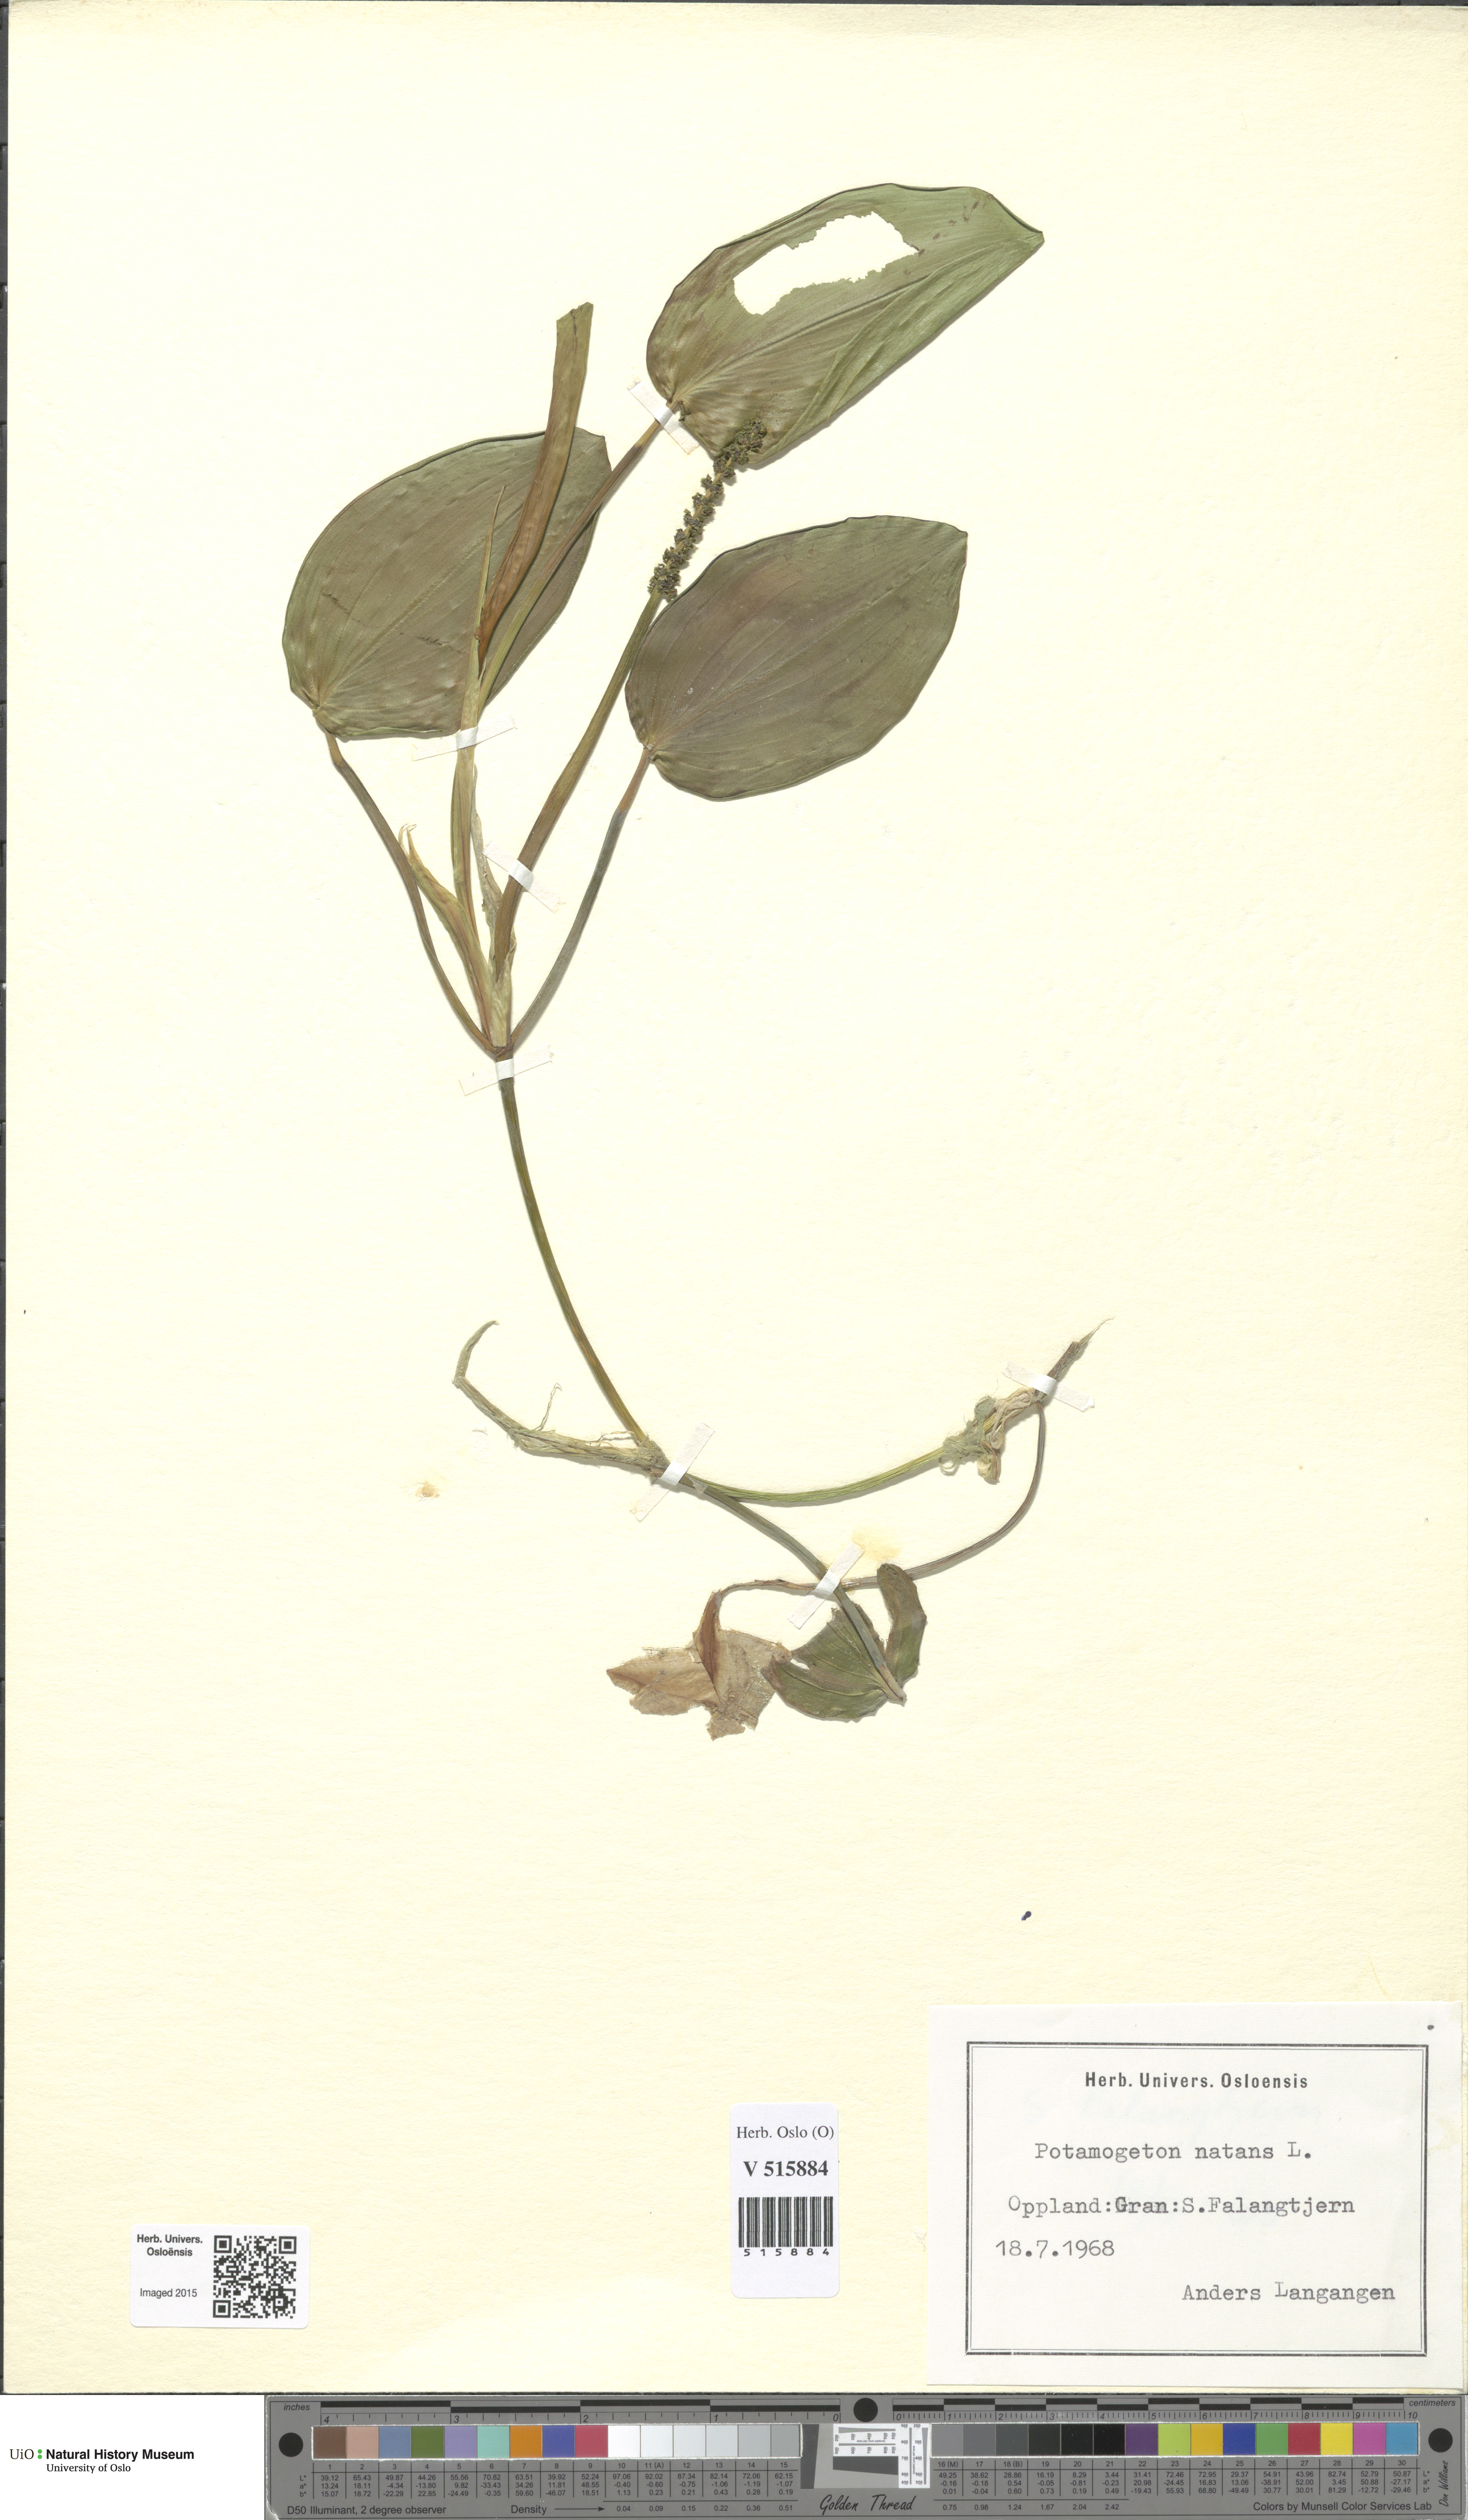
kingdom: Plantae
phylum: Tracheophyta
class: Liliopsida
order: Alismatales
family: Potamogetonaceae
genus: Potamogeton
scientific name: Potamogeton natans
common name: Broad-leaved pondweed
